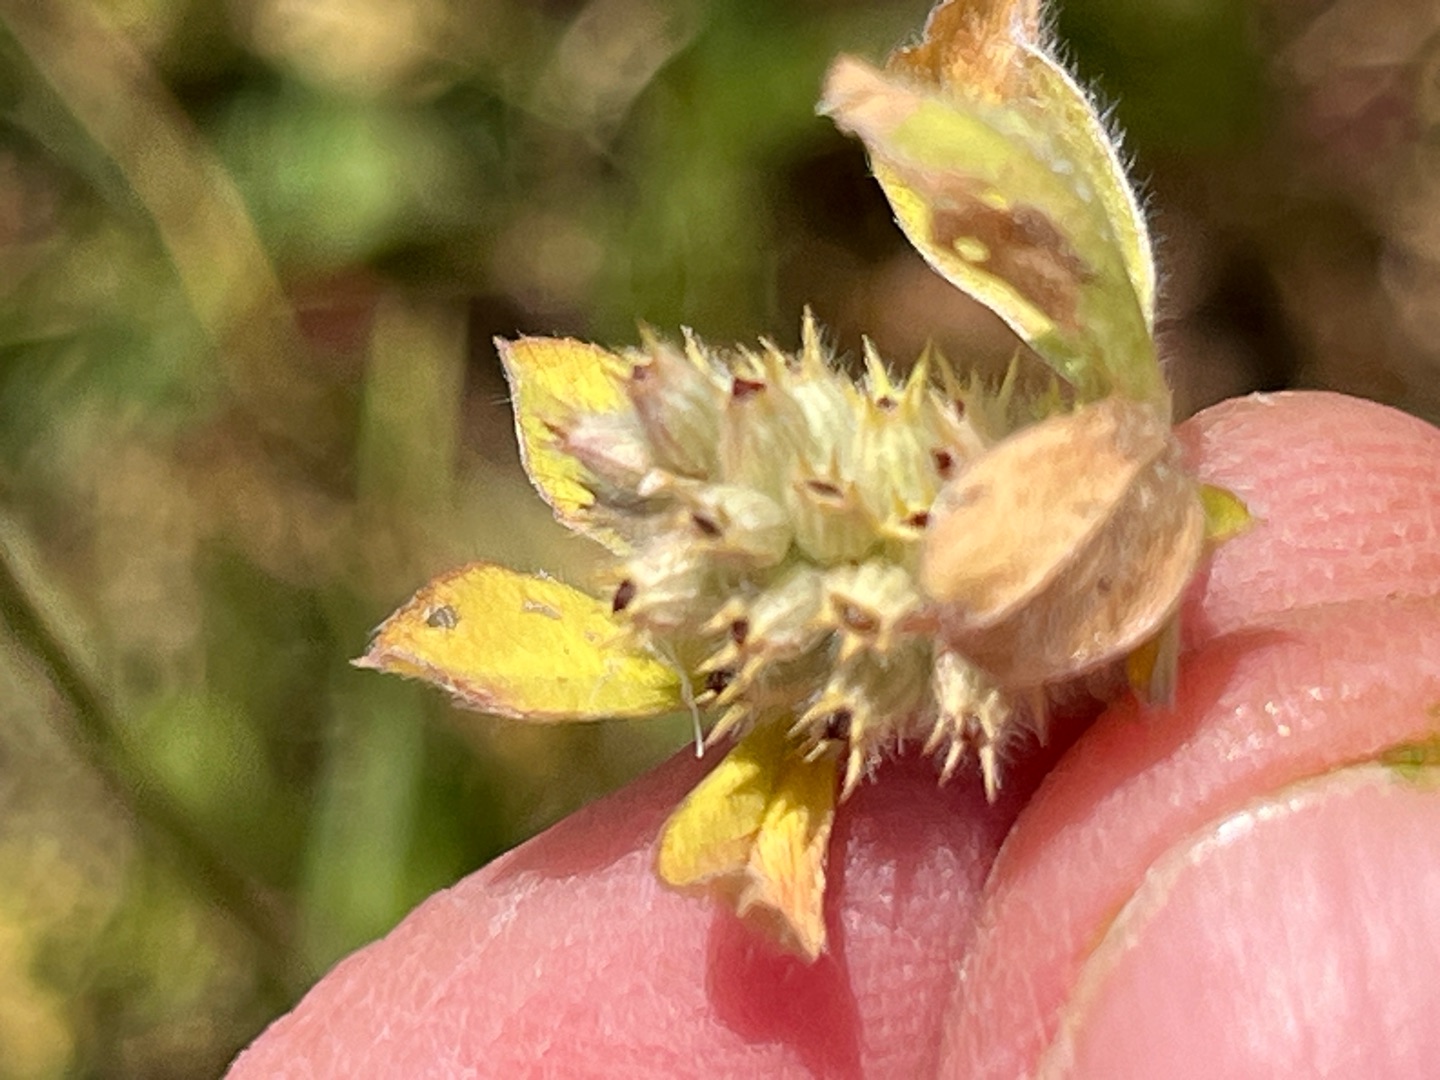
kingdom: Plantae
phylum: Tracheophyta
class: Magnoliopsida
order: Fabales
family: Fabaceae
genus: Trifolium
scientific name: Trifolium striatum
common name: Stribet kløver
